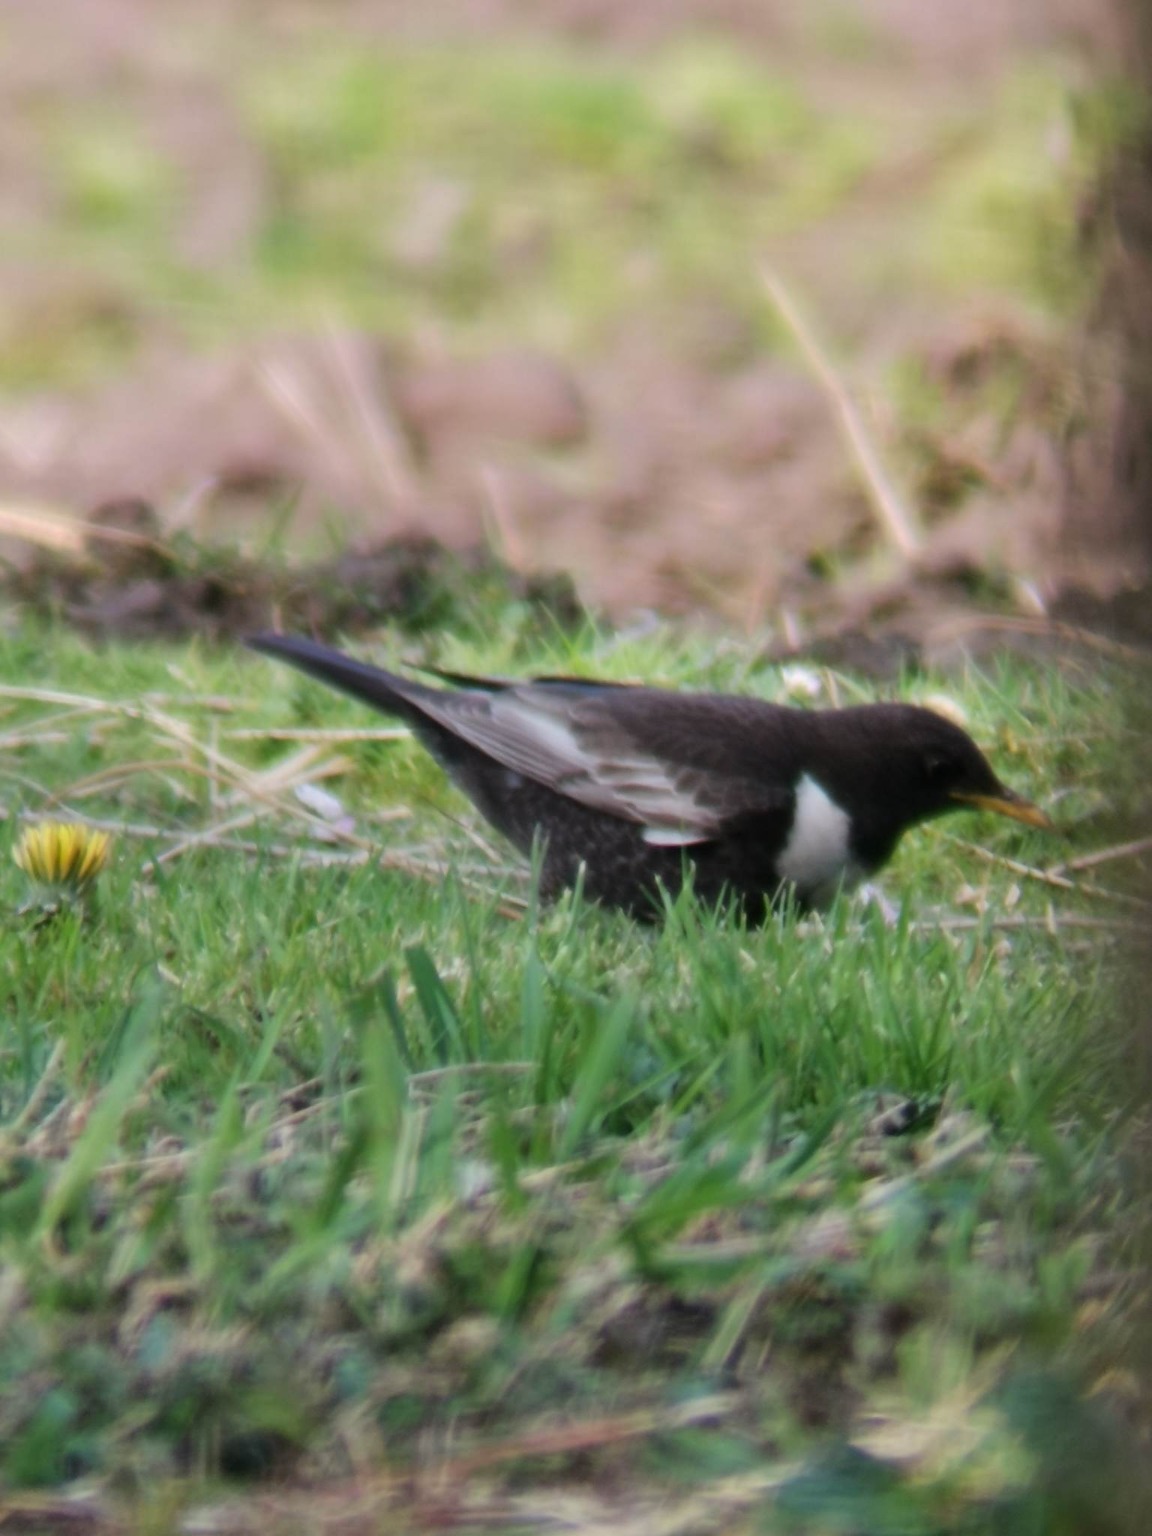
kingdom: Animalia
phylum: Chordata
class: Aves
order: Passeriformes
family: Turdidae
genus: Turdus
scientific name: Turdus torquatus
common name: Ringdrossel
